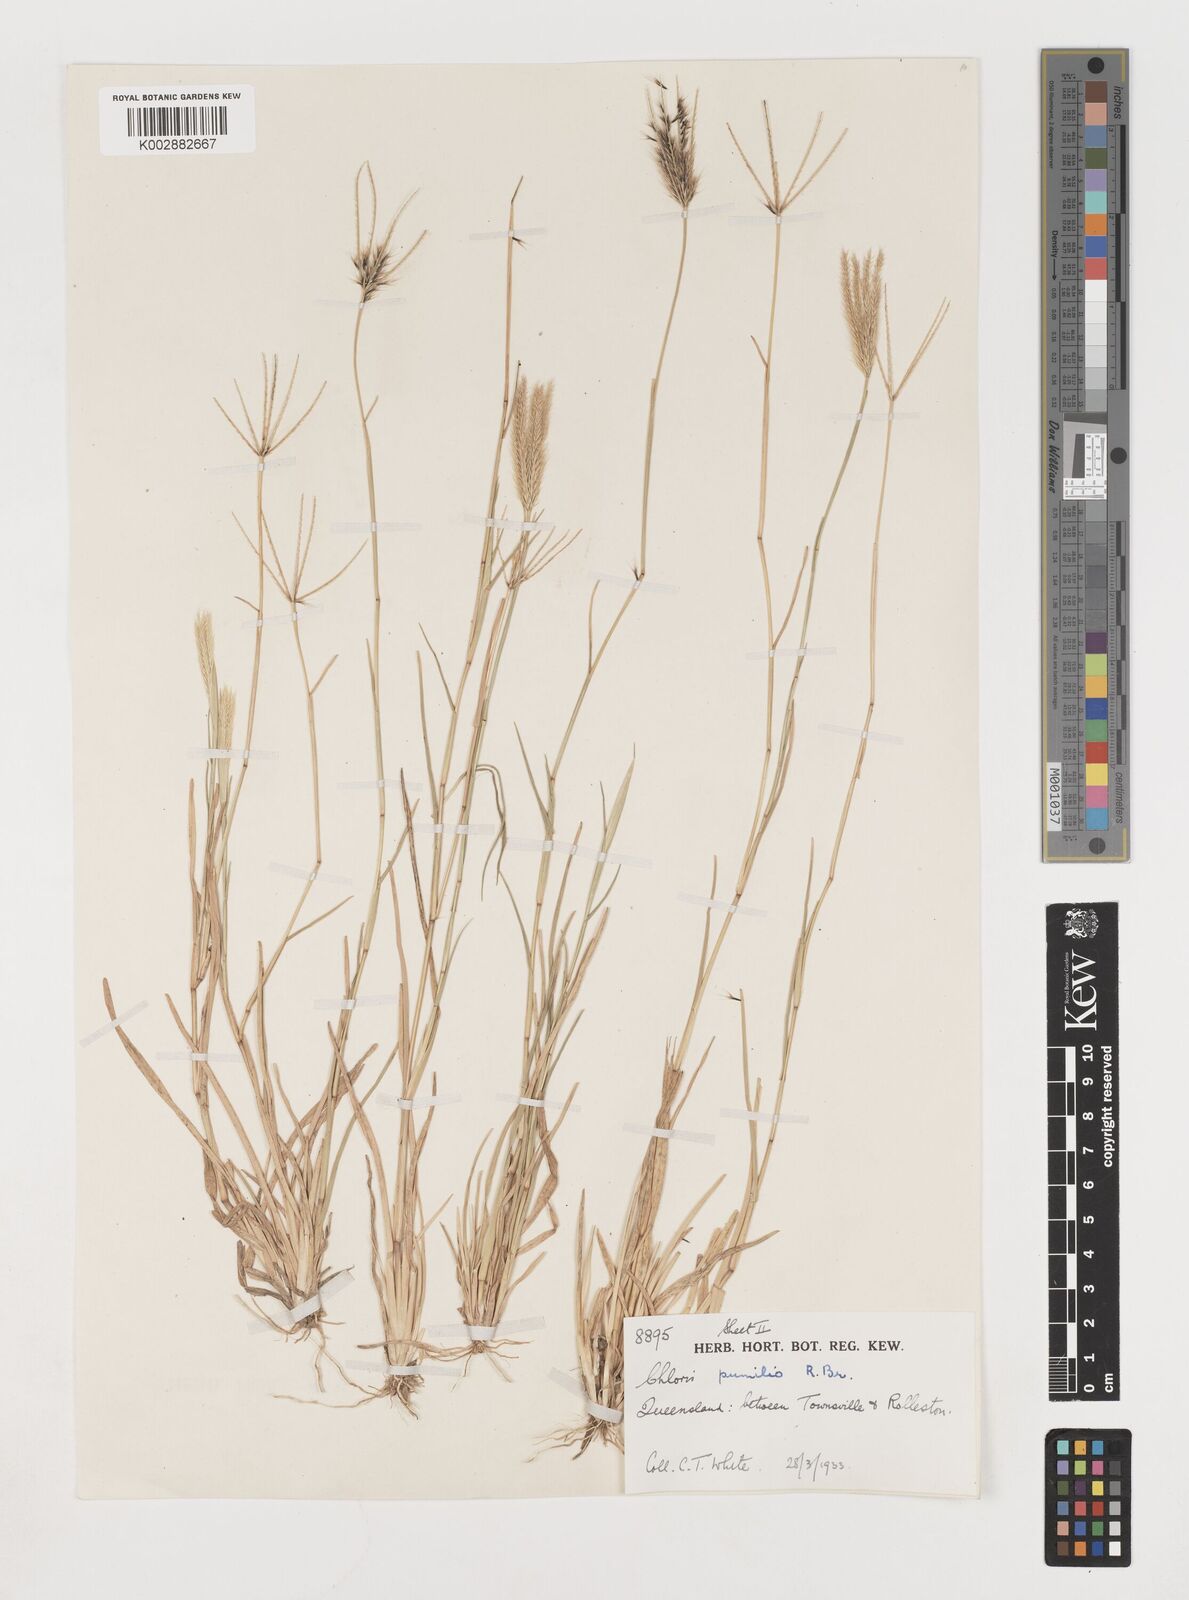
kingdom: Plantae
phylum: Tracheophyta
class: Liliopsida
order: Poales
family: Poaceae
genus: Chloris
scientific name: Chloris lobata
